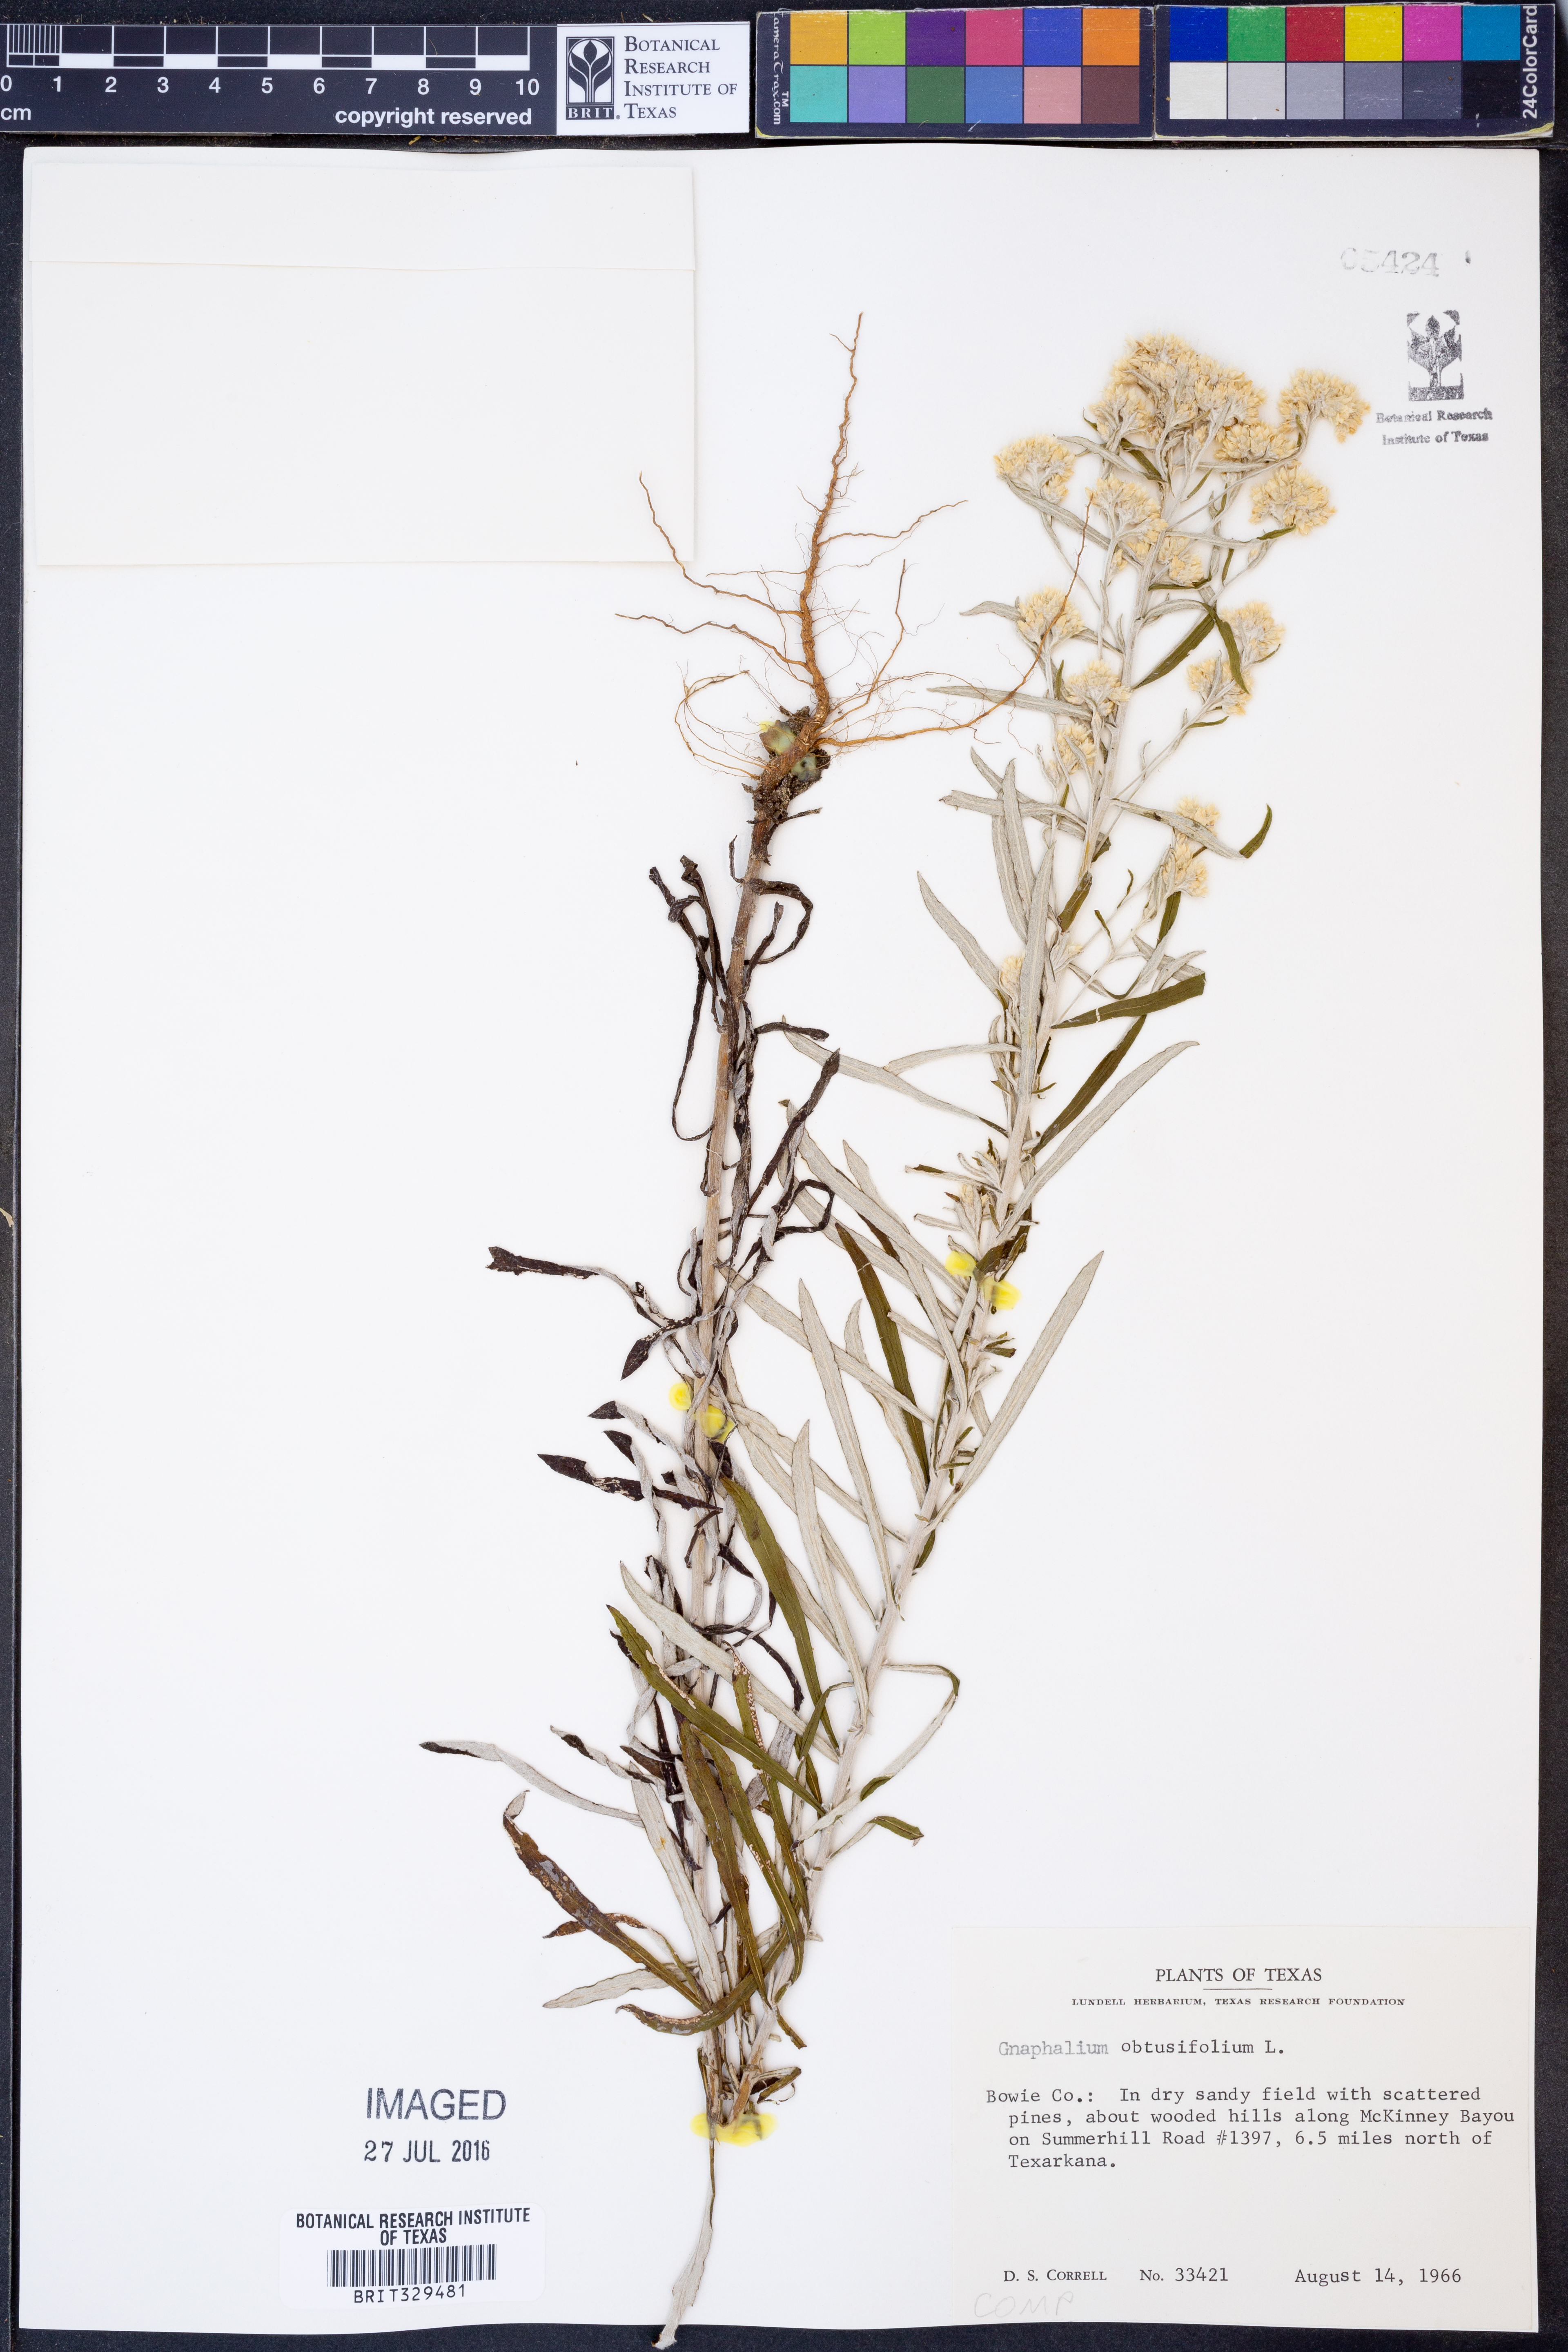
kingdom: Plantae
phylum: Tracheophyta
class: Magnoliopsida
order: Asterales
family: Asteraceae
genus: Pseudognaphalium
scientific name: Pseudognaphalium obtusifolium
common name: Eastern rabbit-tobacco
